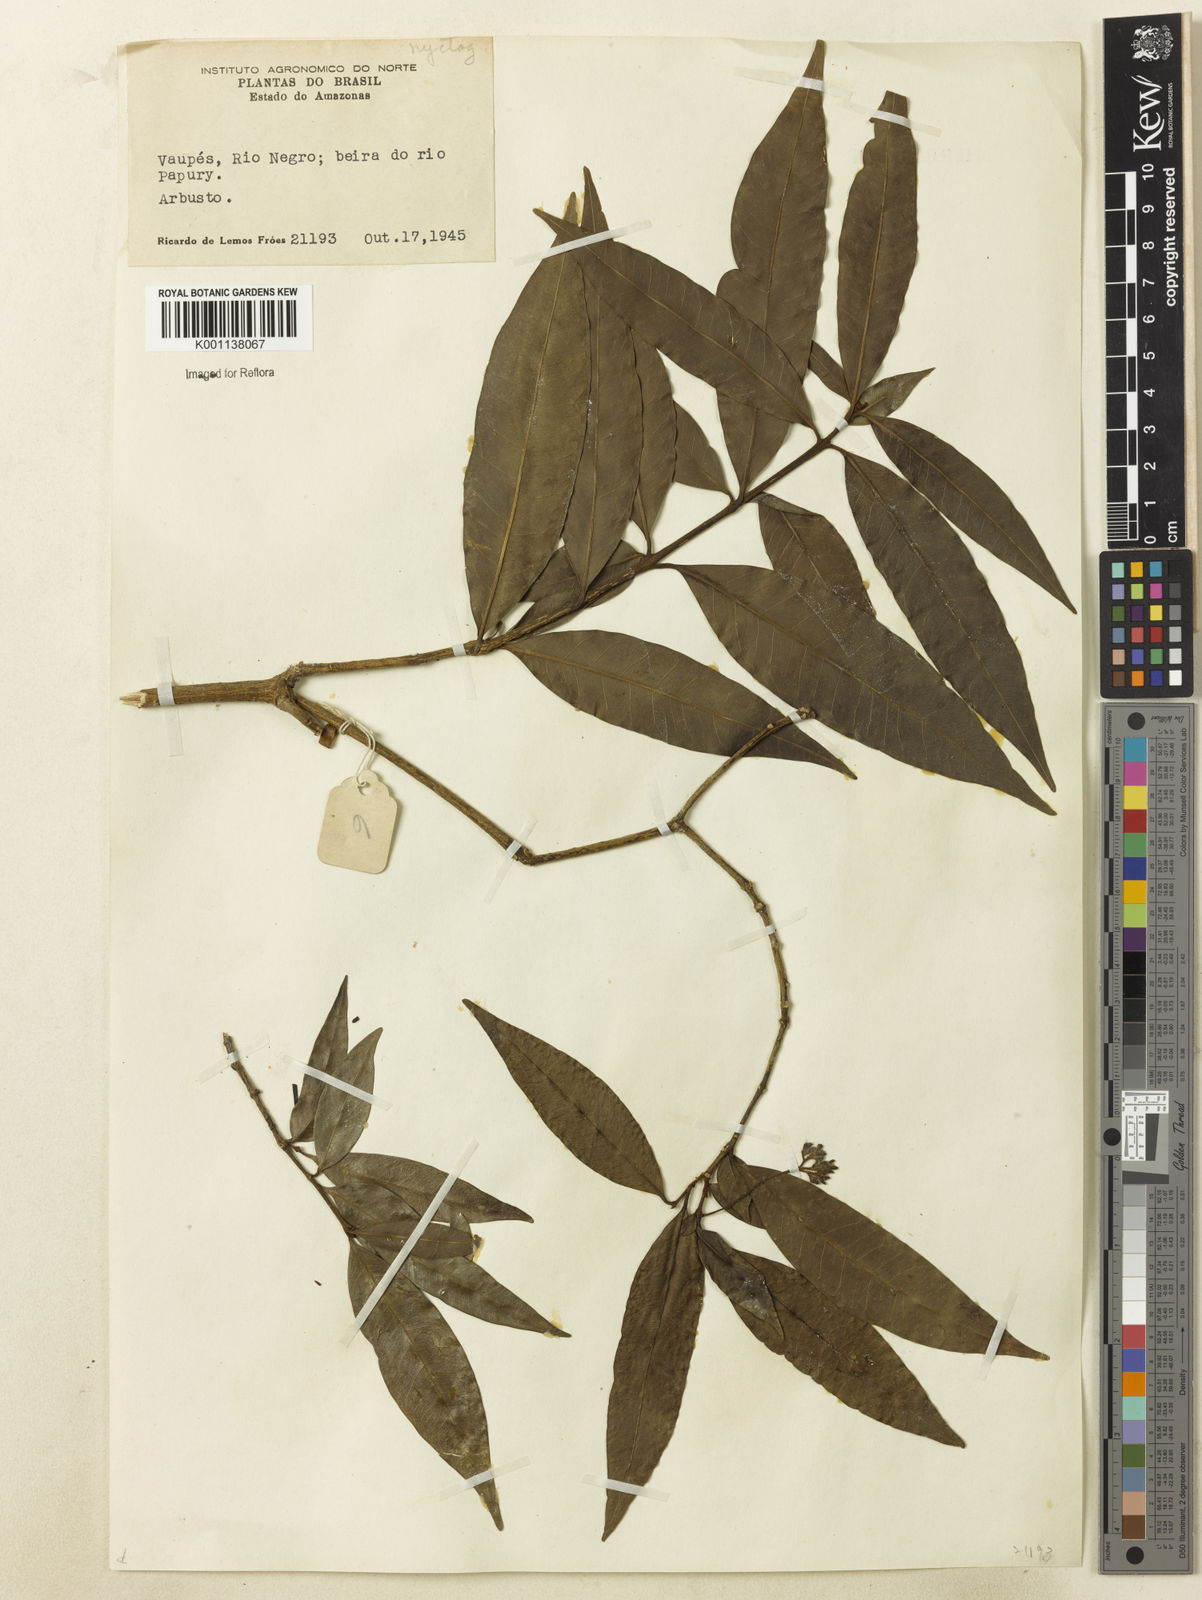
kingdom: Plantae
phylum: Tracheophyta
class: Magnoliopsida
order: Caryophyllales
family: Nyctaginaceae
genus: Neea
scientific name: Neea
